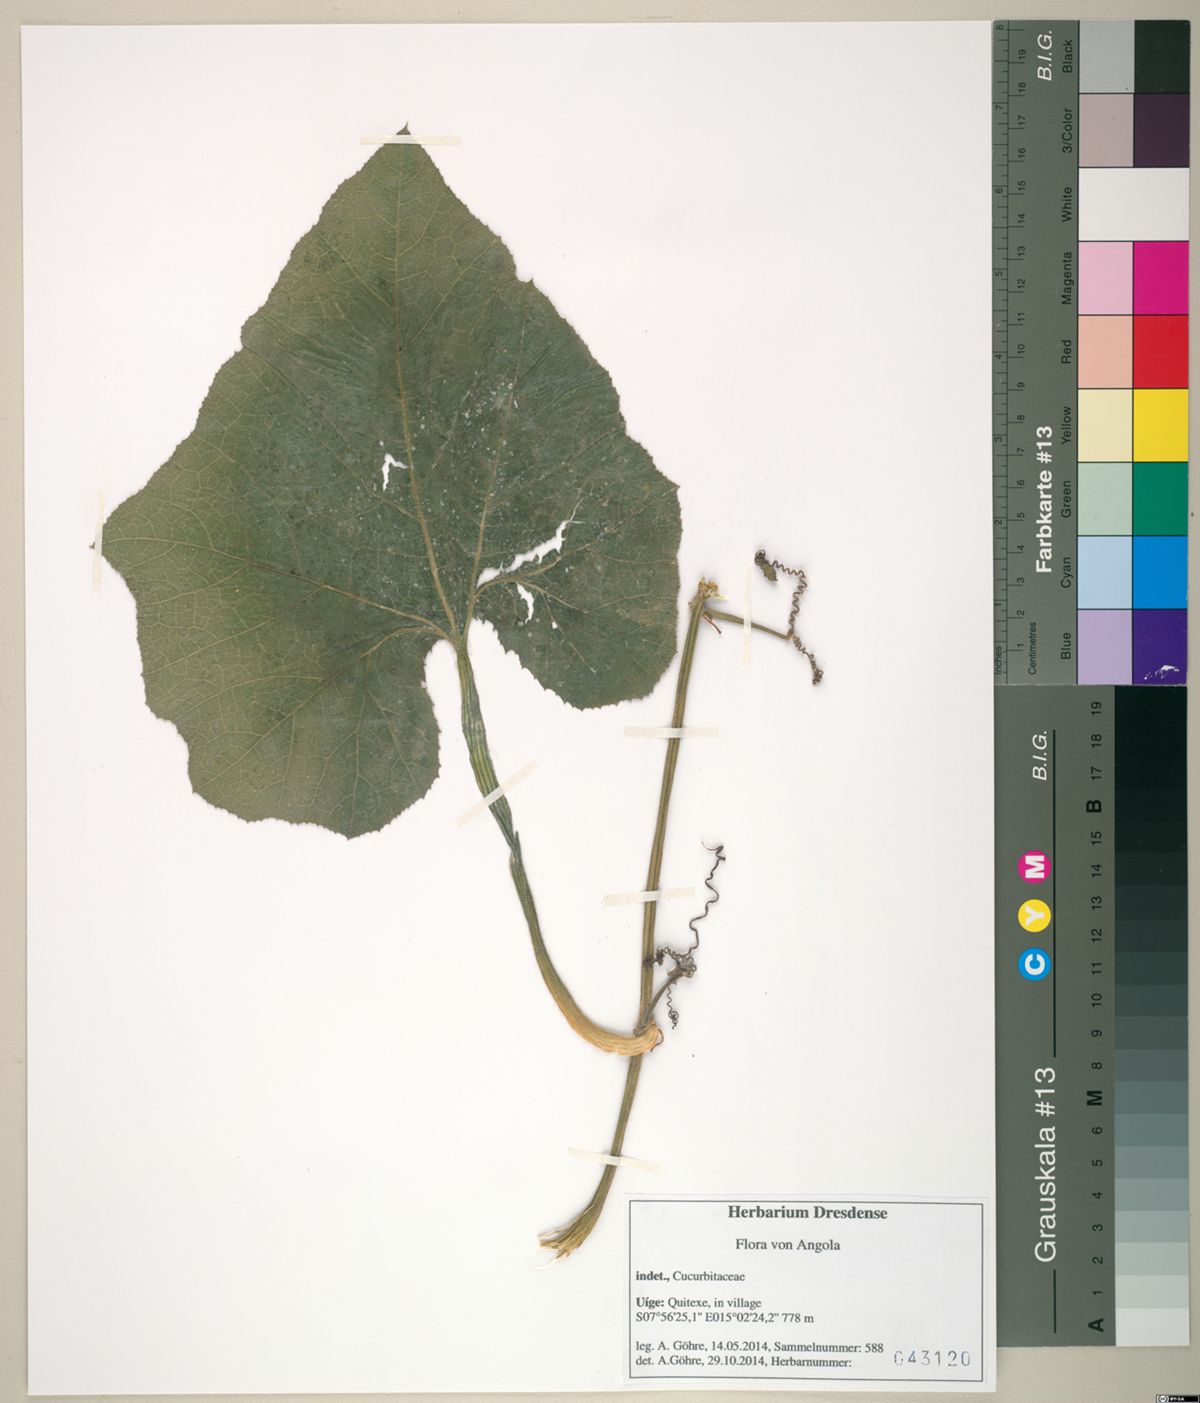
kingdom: Plantae
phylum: Tracheophyta
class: Magnoliopsida
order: Cucurbitales
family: Cucurbitaceae
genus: Cucurbita
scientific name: Cucurbita moschata
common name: Squash / pumpkin
